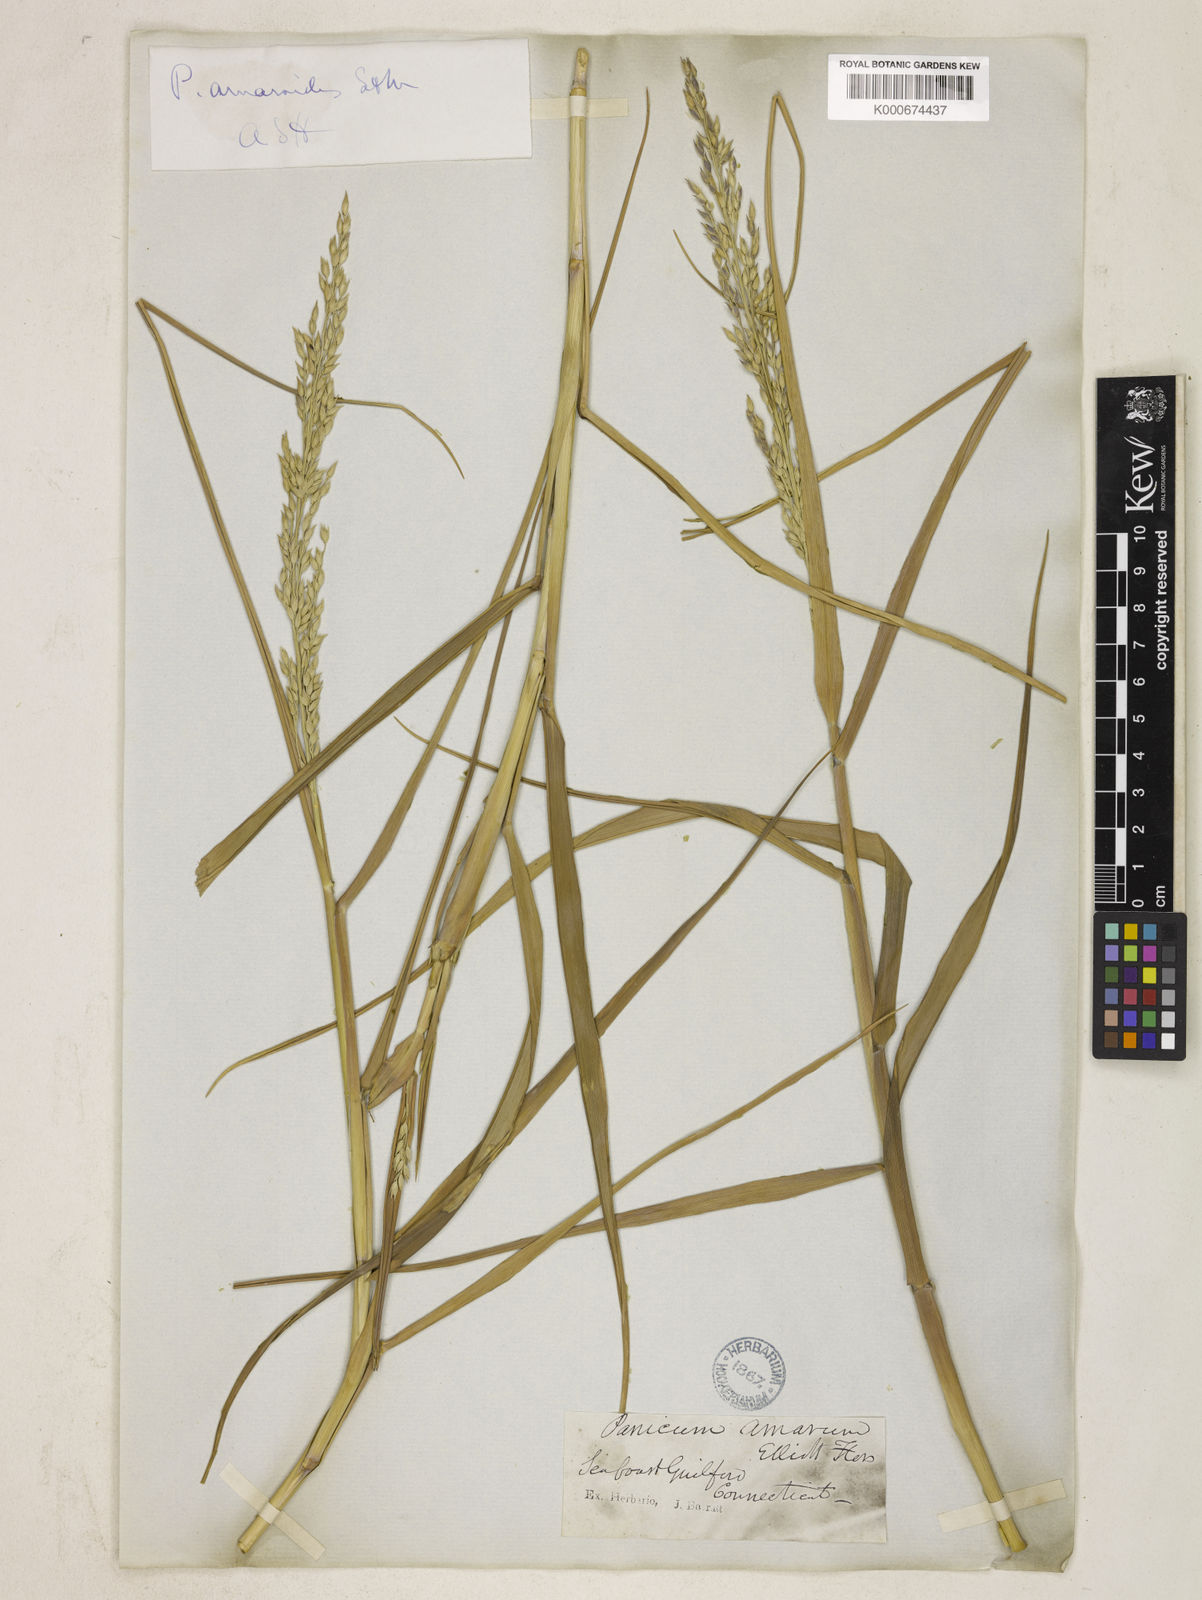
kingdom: Plantae
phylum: Tracheophyta
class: Liliopsida
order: Poales
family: Poaceae
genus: Panicum
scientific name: Panicum amarum
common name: Bitter panicum
